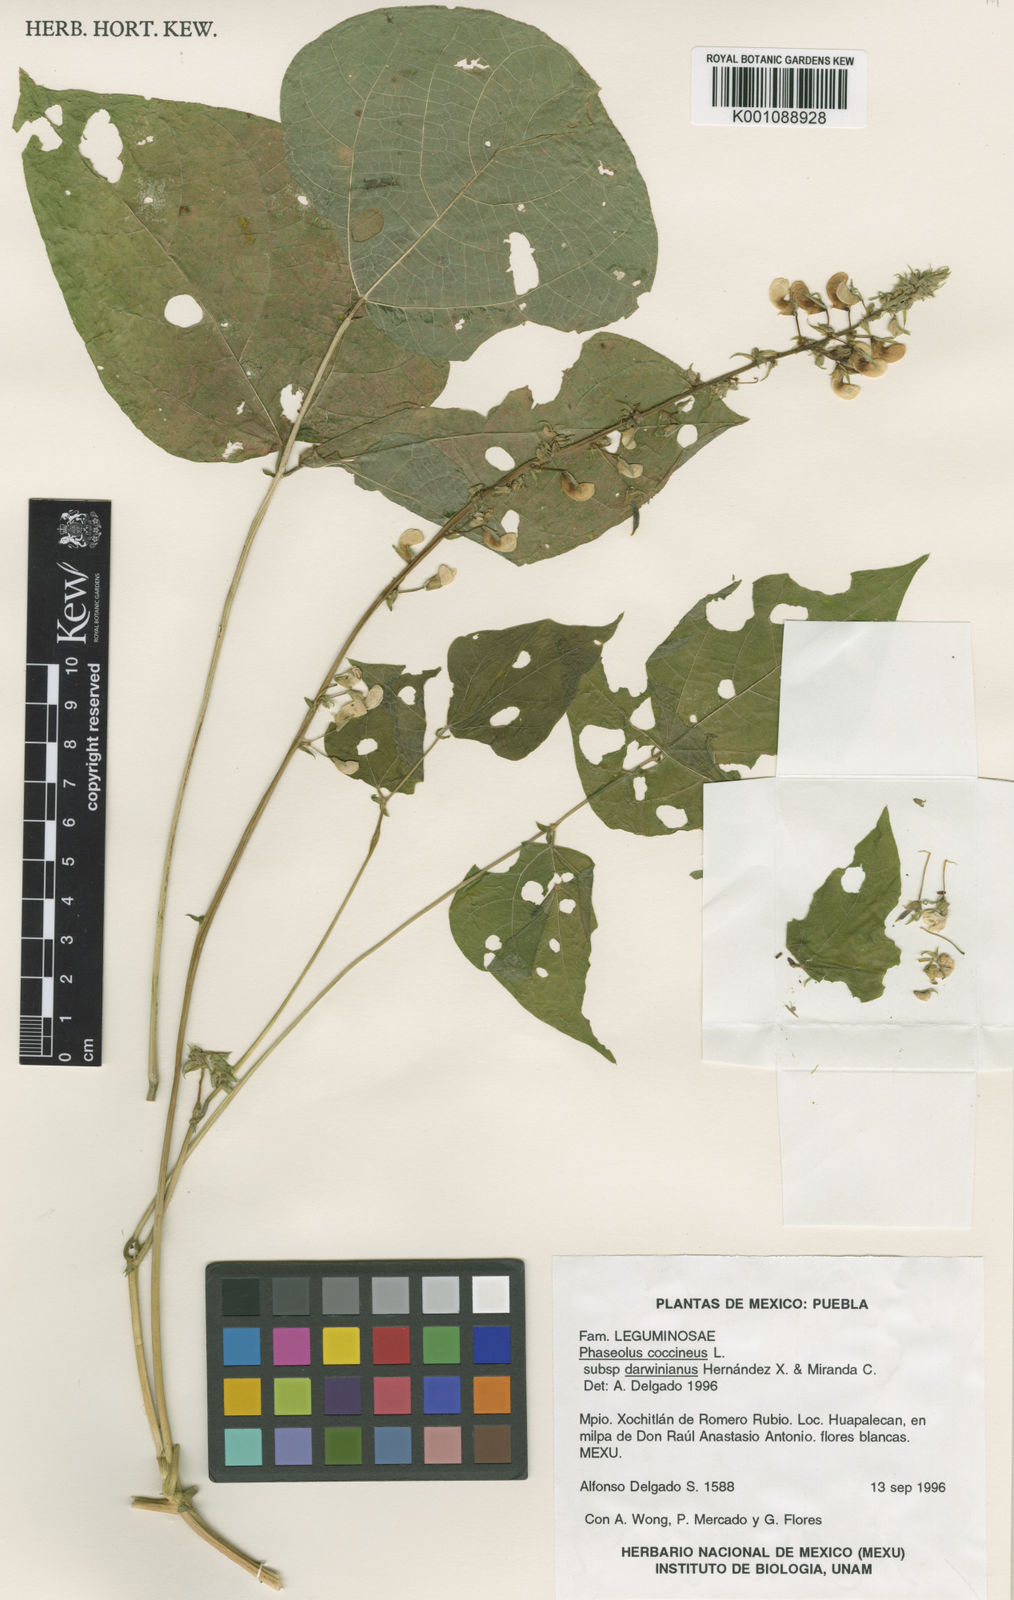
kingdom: Plantae
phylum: Tracheophyta
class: Magnoliopsida
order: Fabales
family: Fabaceae
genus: Phaseolus
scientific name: Phaseolus
